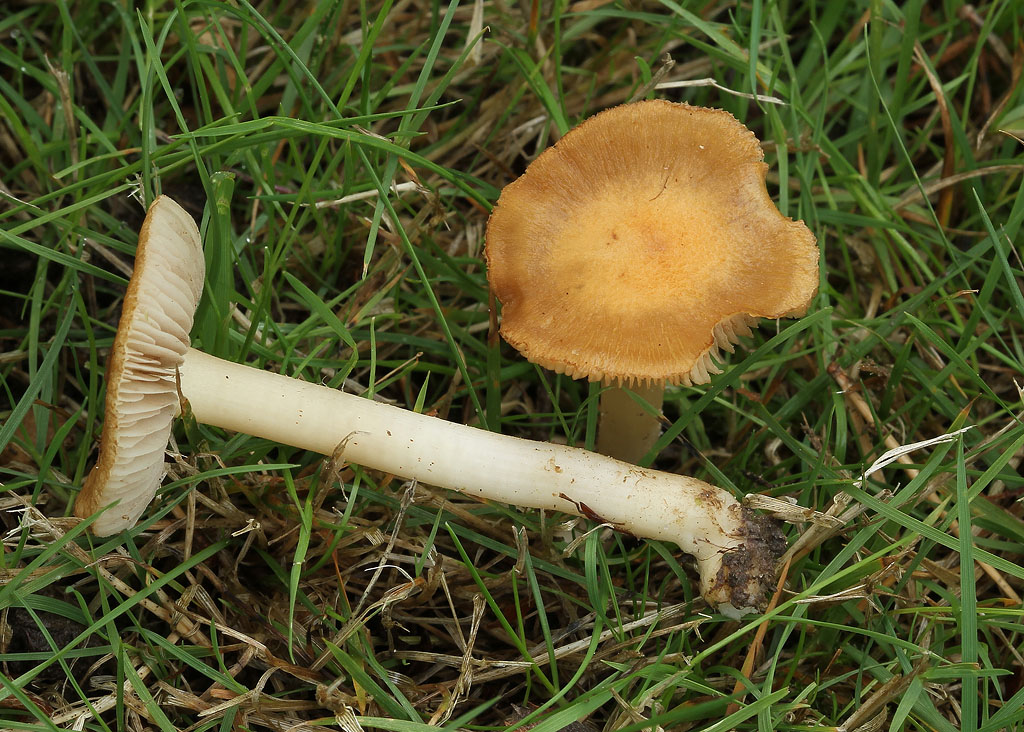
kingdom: Fungi
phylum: Basidiomycota
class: Agaricomycetes
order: Agaricales
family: Inocybaceae
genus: Inocybe
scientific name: Inocybe mixtilis
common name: randknoldet trævlhat
